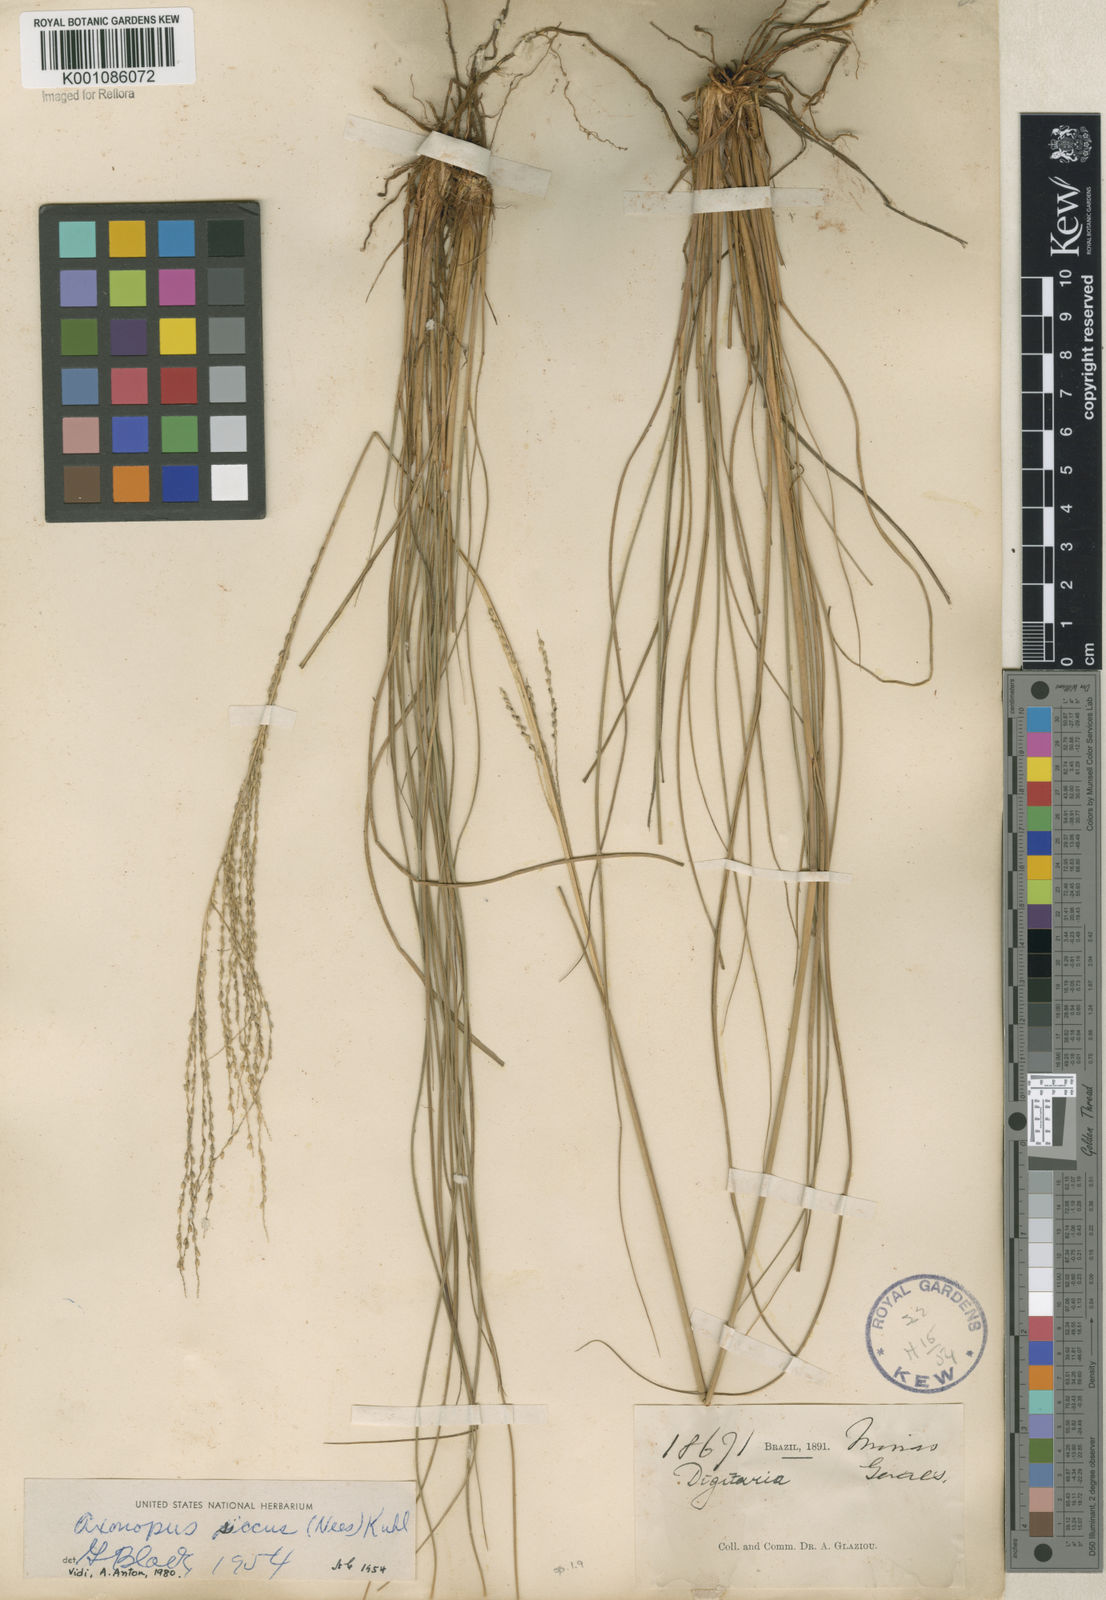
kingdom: Plantae
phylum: Tracheophyta
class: Liliopsida
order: Poales
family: Poaceae
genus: Axonopus
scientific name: Axonopus siccus
